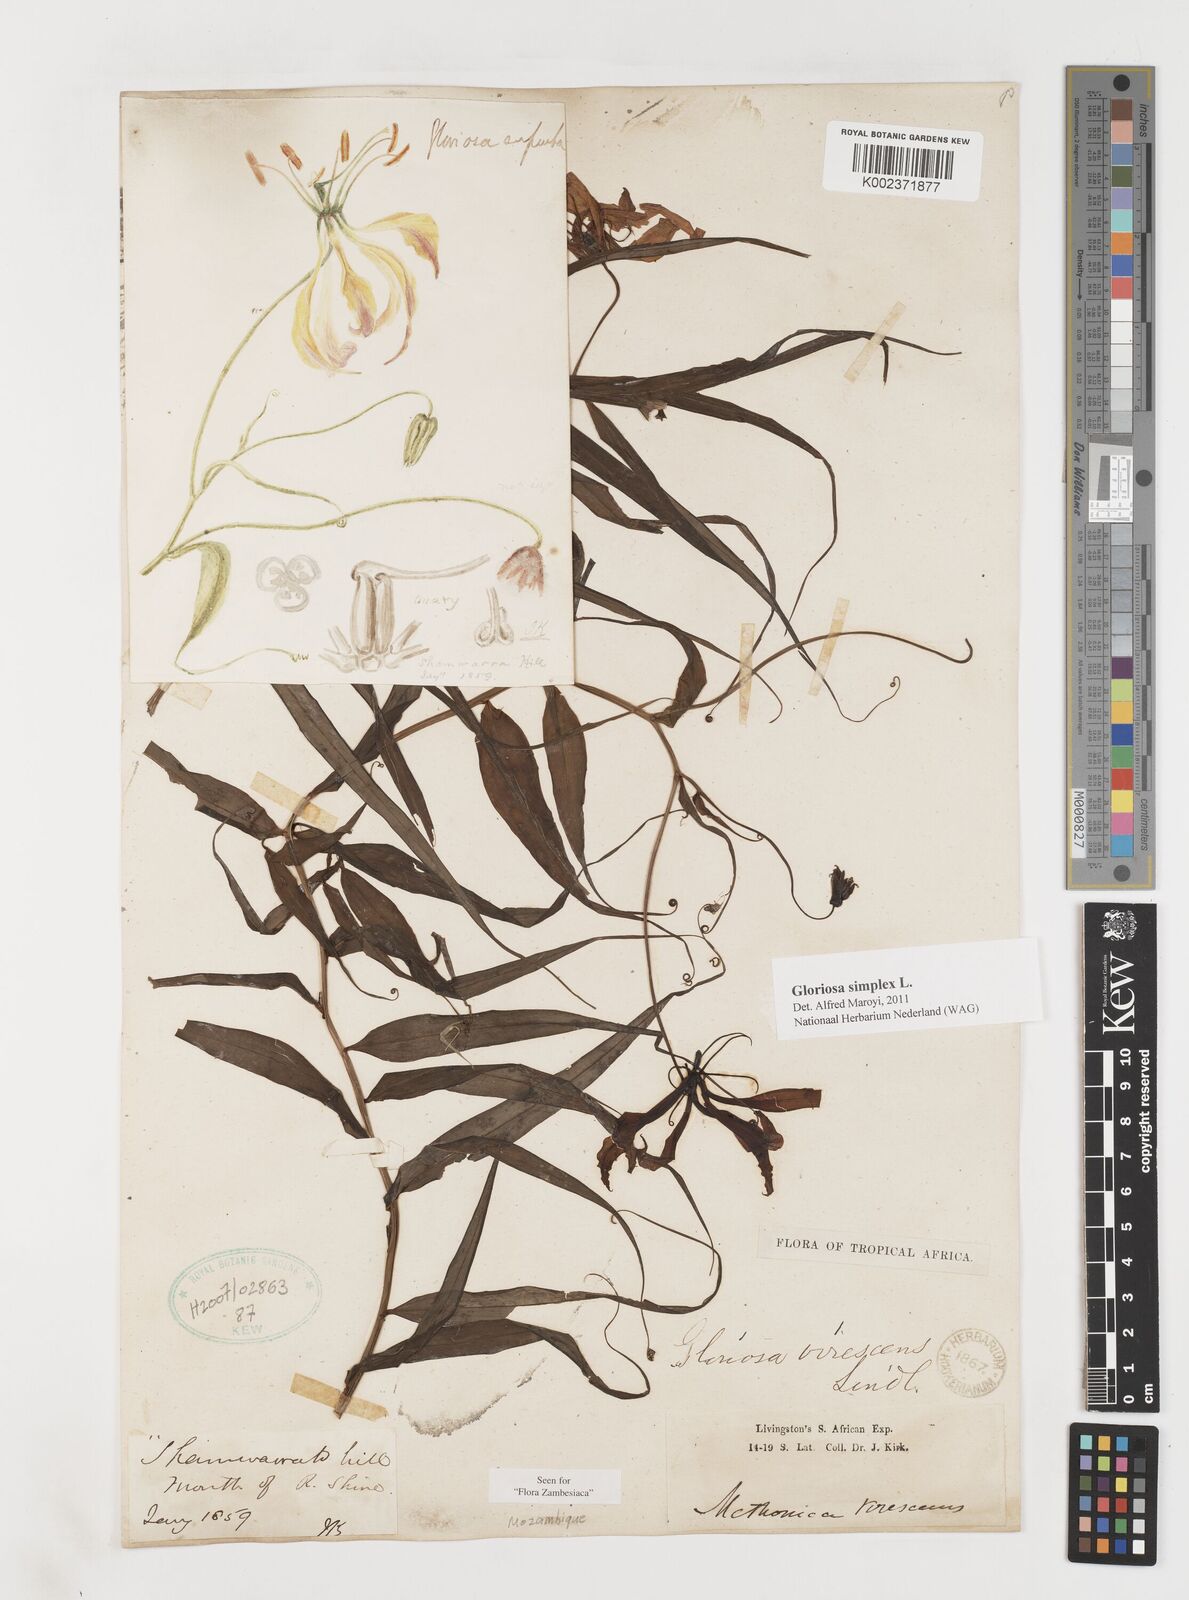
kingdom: Plantae
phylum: Tracheophyta
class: Liliopsida
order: Liliales
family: Colchicaceae
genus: Gloriosa
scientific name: Gloriosa simplex
